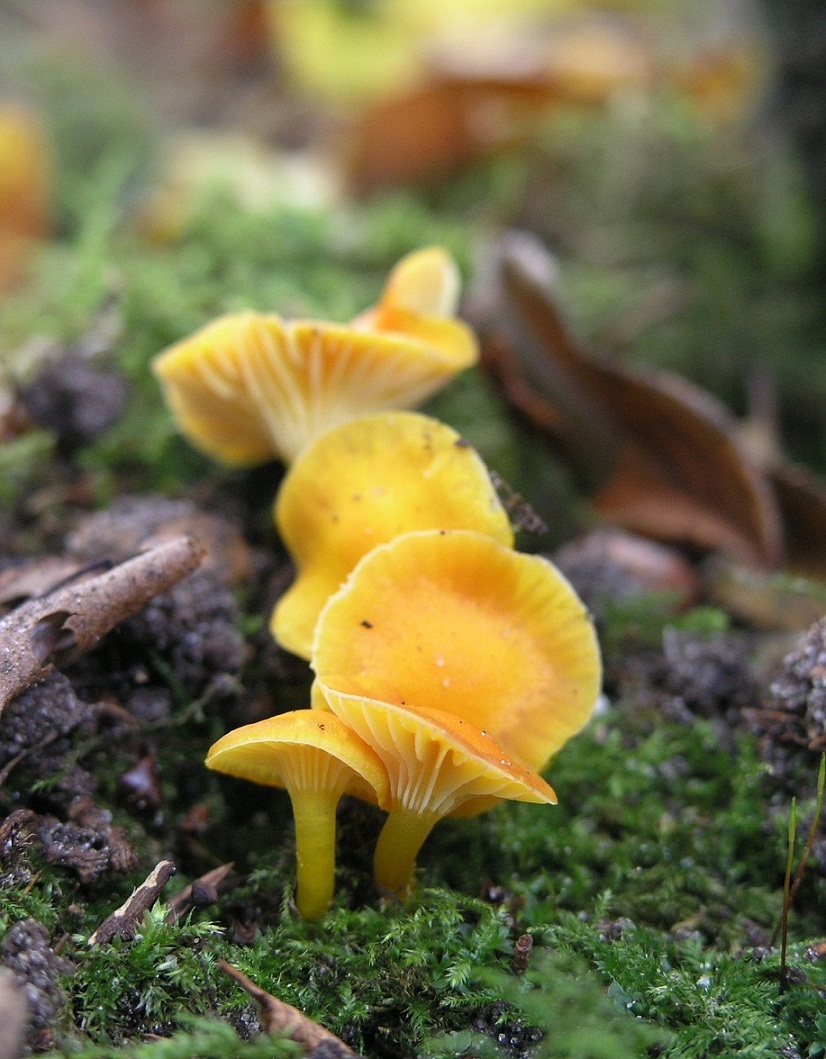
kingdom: Fungi
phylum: Basidiomycota
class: Agaricomycetes
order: Agaricales
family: Hygrophoraceae
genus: Hygrocybe
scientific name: Hygrocybe insipida
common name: liden vokshat
